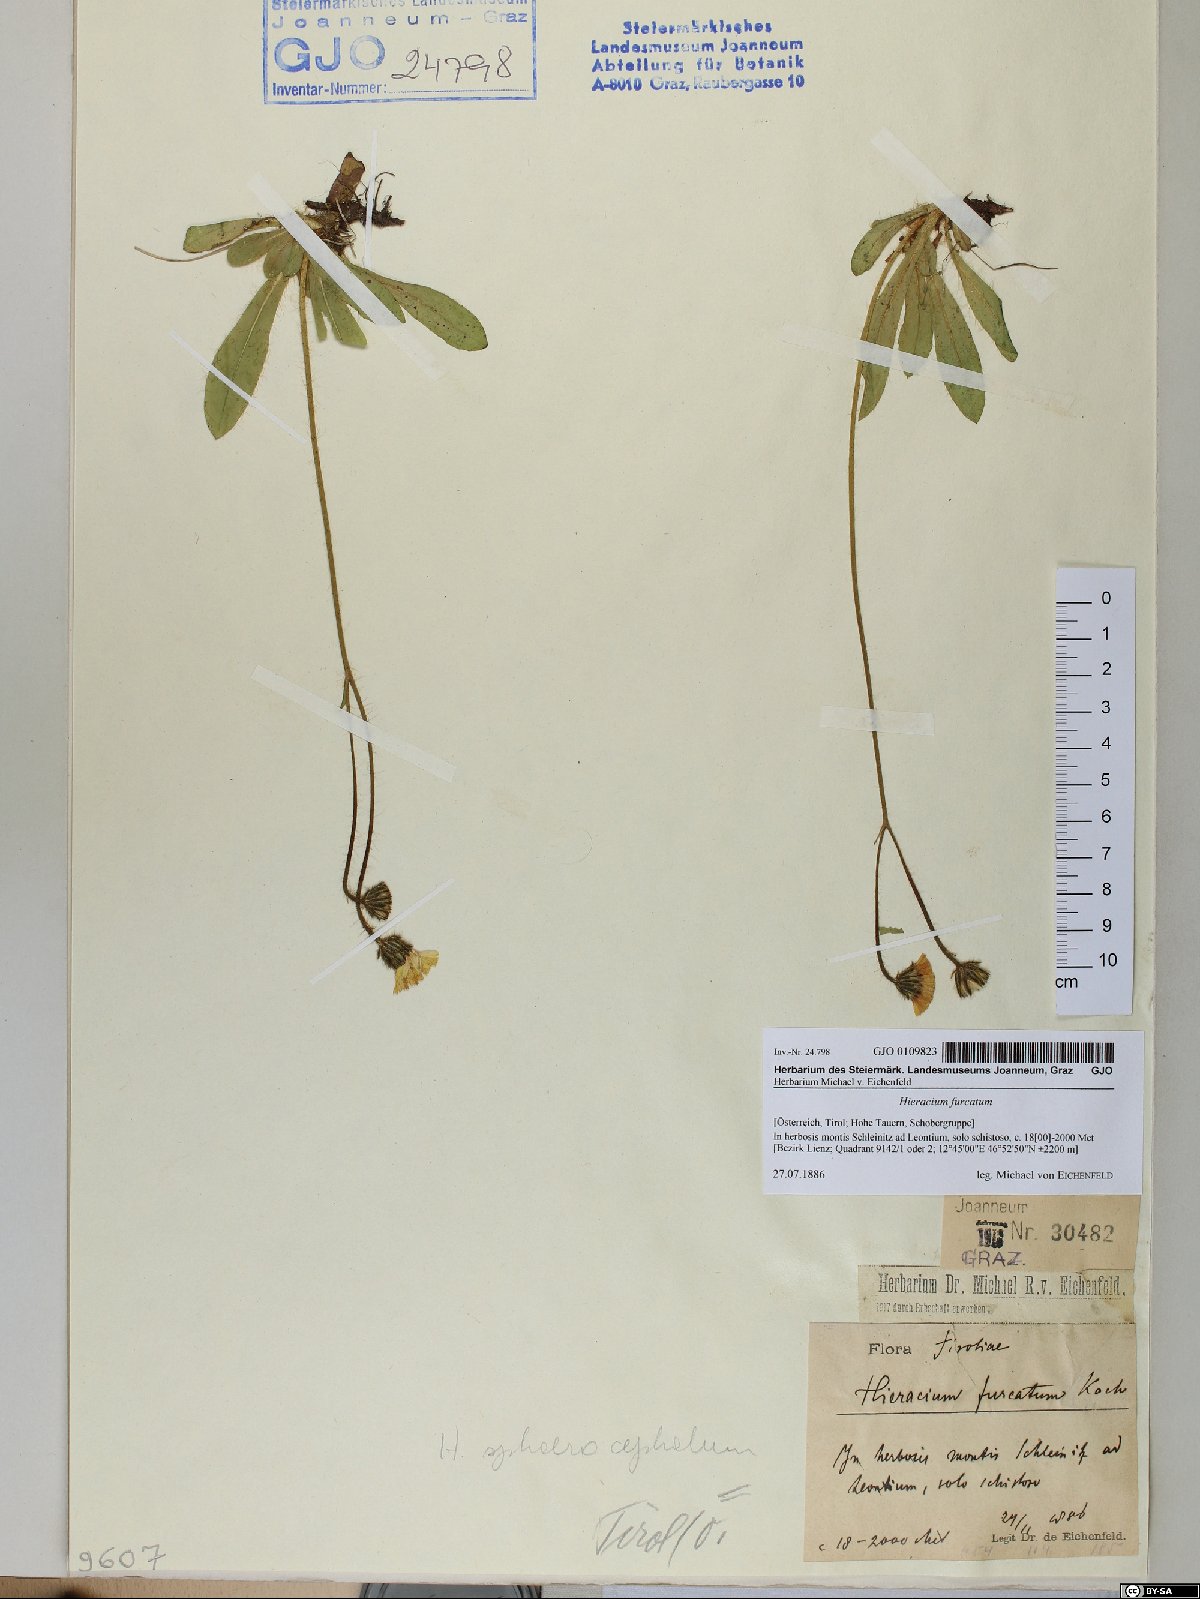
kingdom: Plantae
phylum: Tracheophyta
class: Magnoliopsida
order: Asterales
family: Asteraceae
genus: Pilosella
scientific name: Pilosella sphaerocephala
